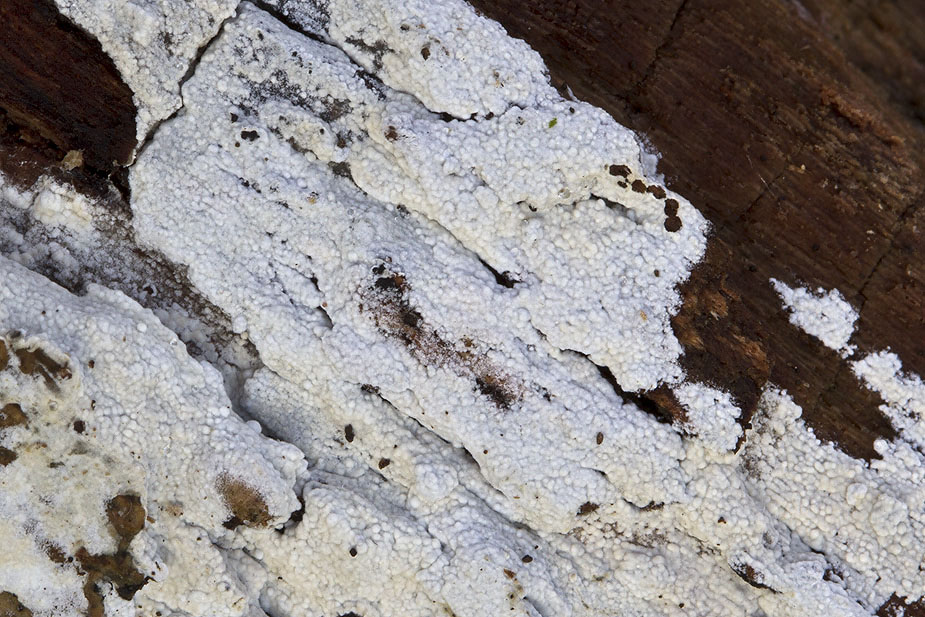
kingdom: Fungi
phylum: Basidiomycota
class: Agaricomycetes
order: Corticiales
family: Corticiaceae
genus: Lyomyces
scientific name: Lyomyces sambuci
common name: almindelig hyldehinde
